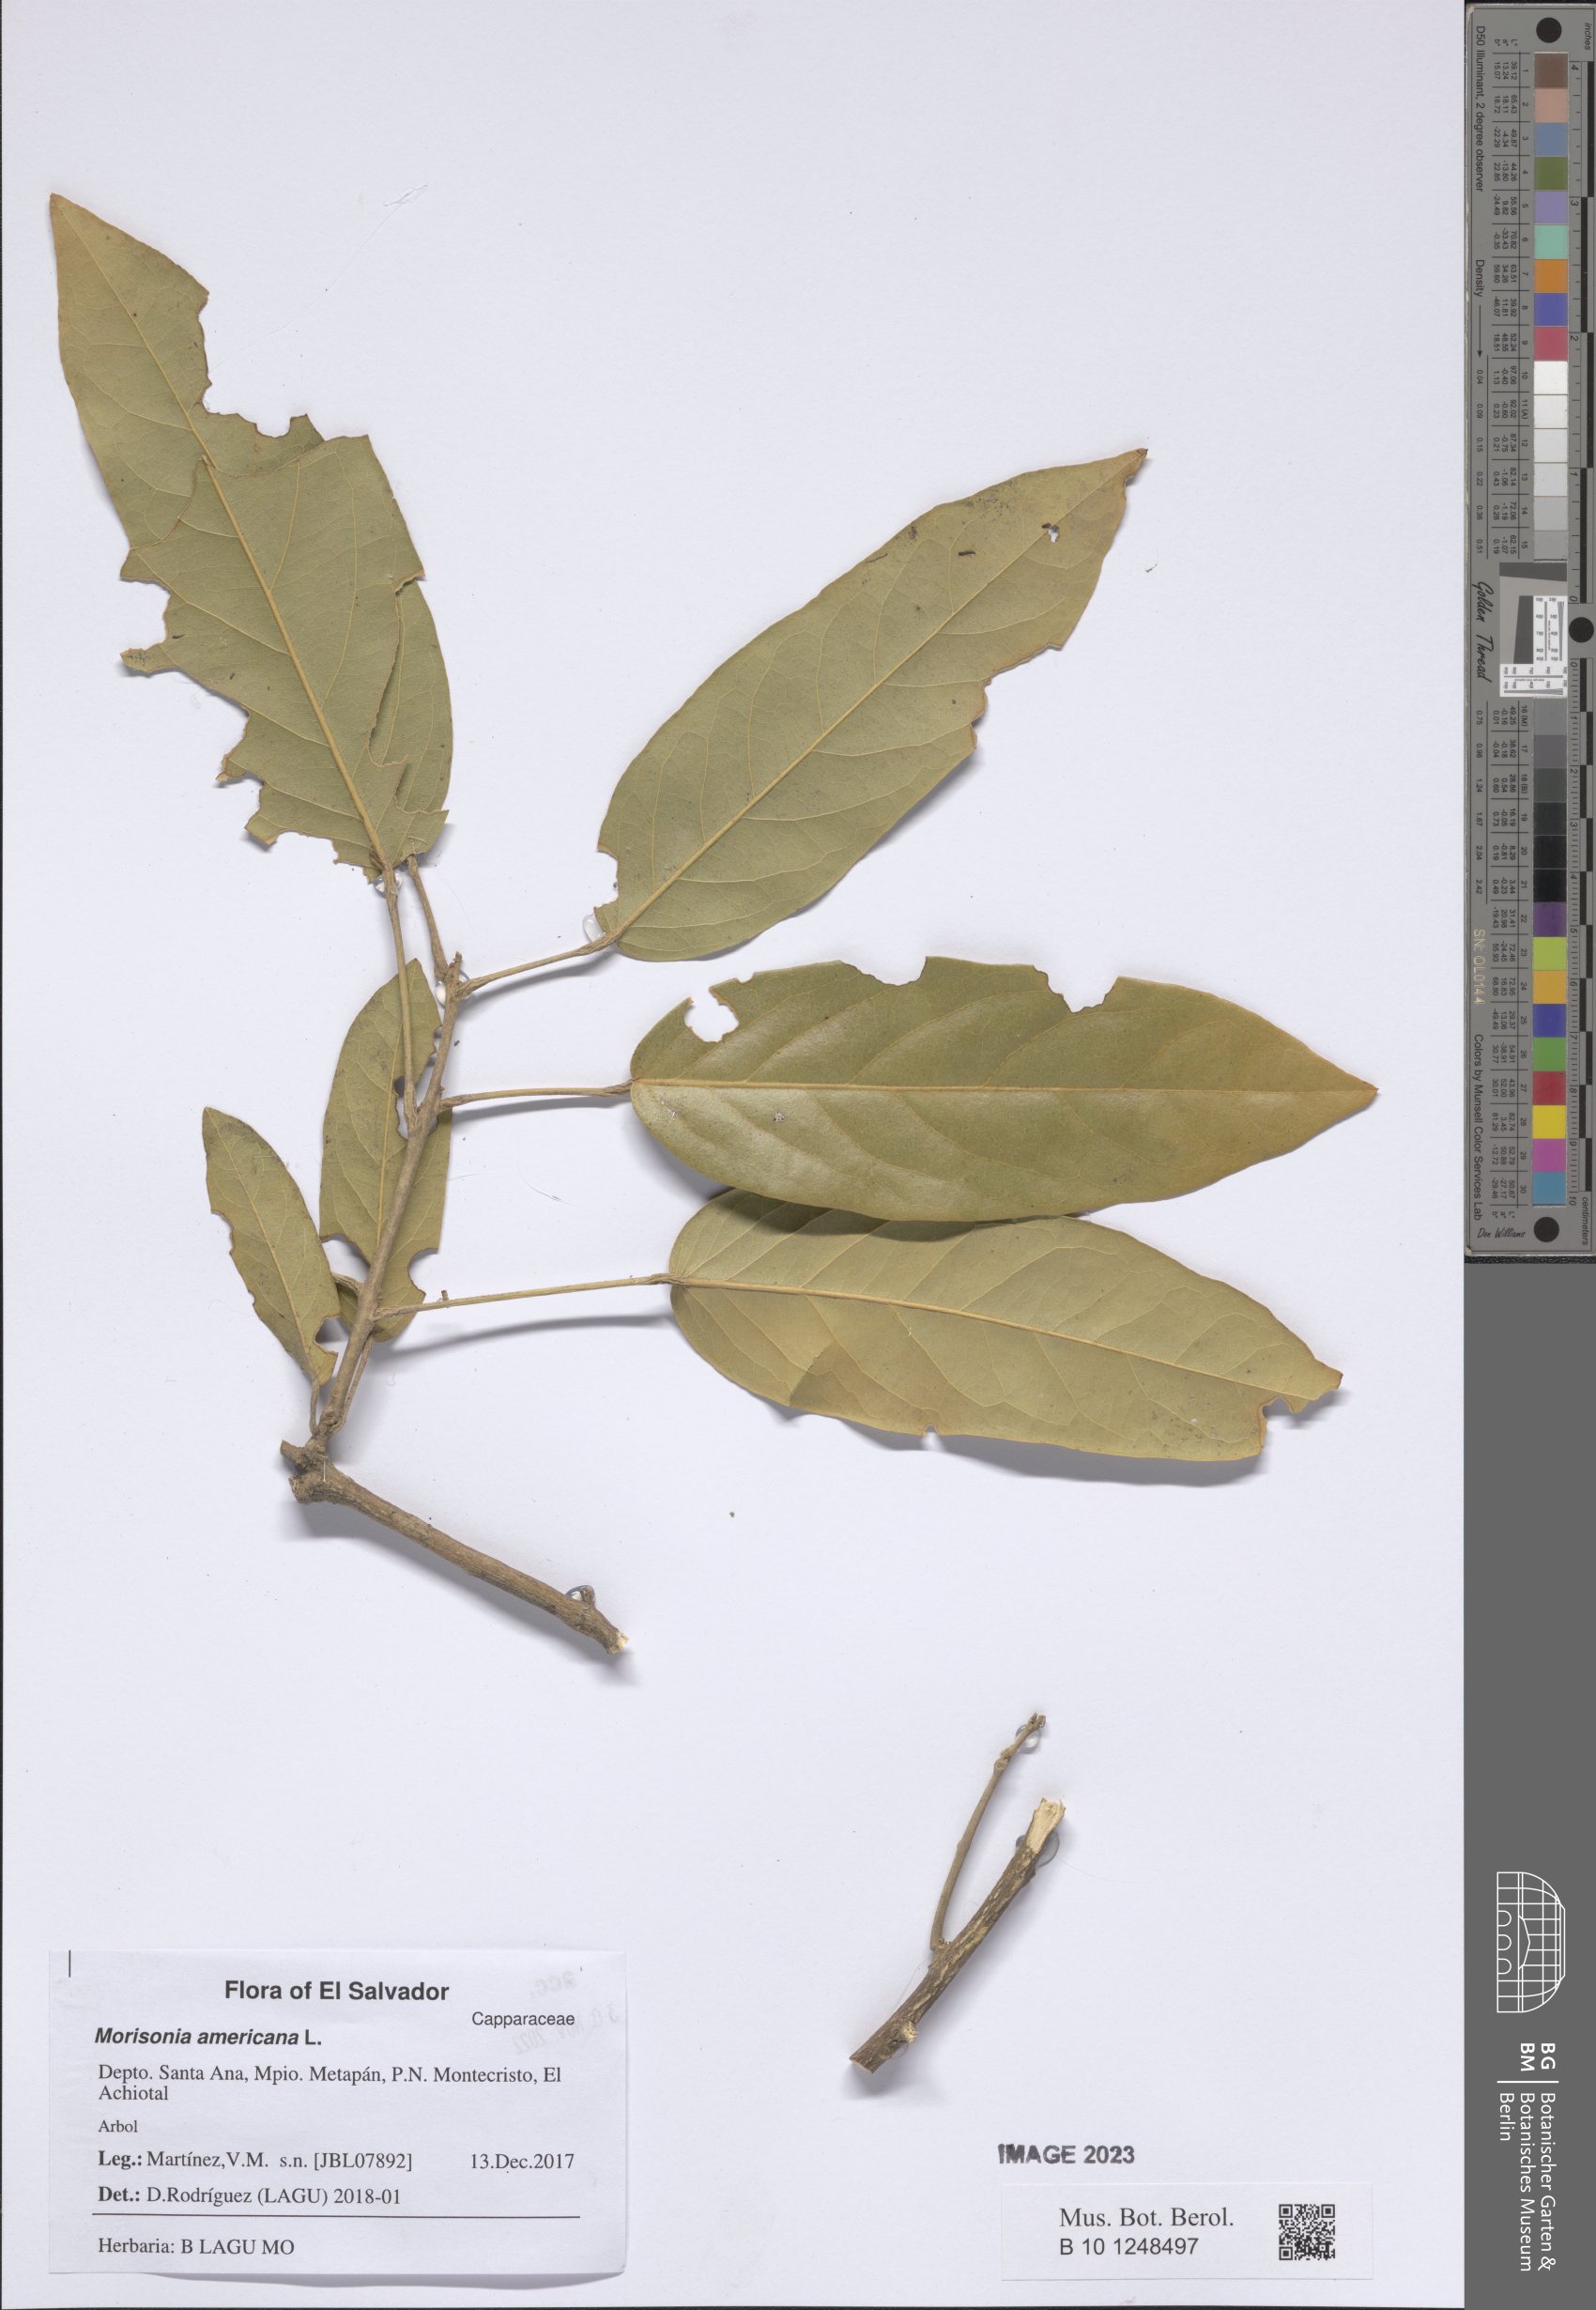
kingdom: Plantae
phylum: Tracheophyta
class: Magnoliopsida
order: Brassicales
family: Capparaceae
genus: Morisonia
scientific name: Morisonia americana
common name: Wild mesple
